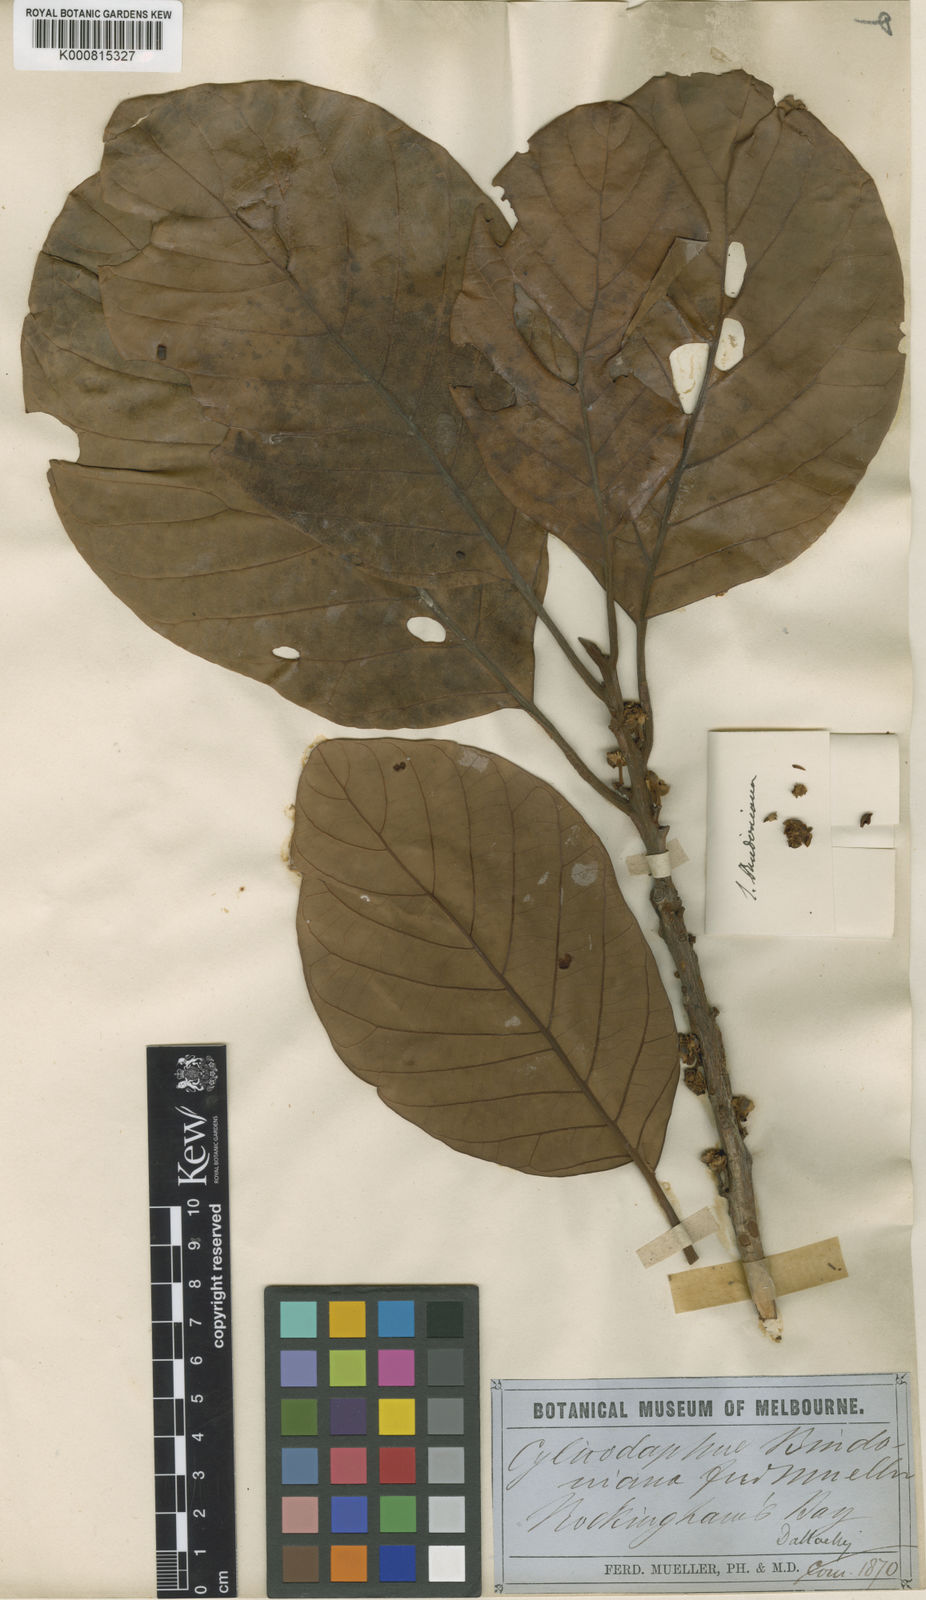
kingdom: Plantae
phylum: Tracheophyta
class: Magnoliopsida
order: Laurales
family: Lauraceae
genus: Litsea
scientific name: Litsea bindoniana
